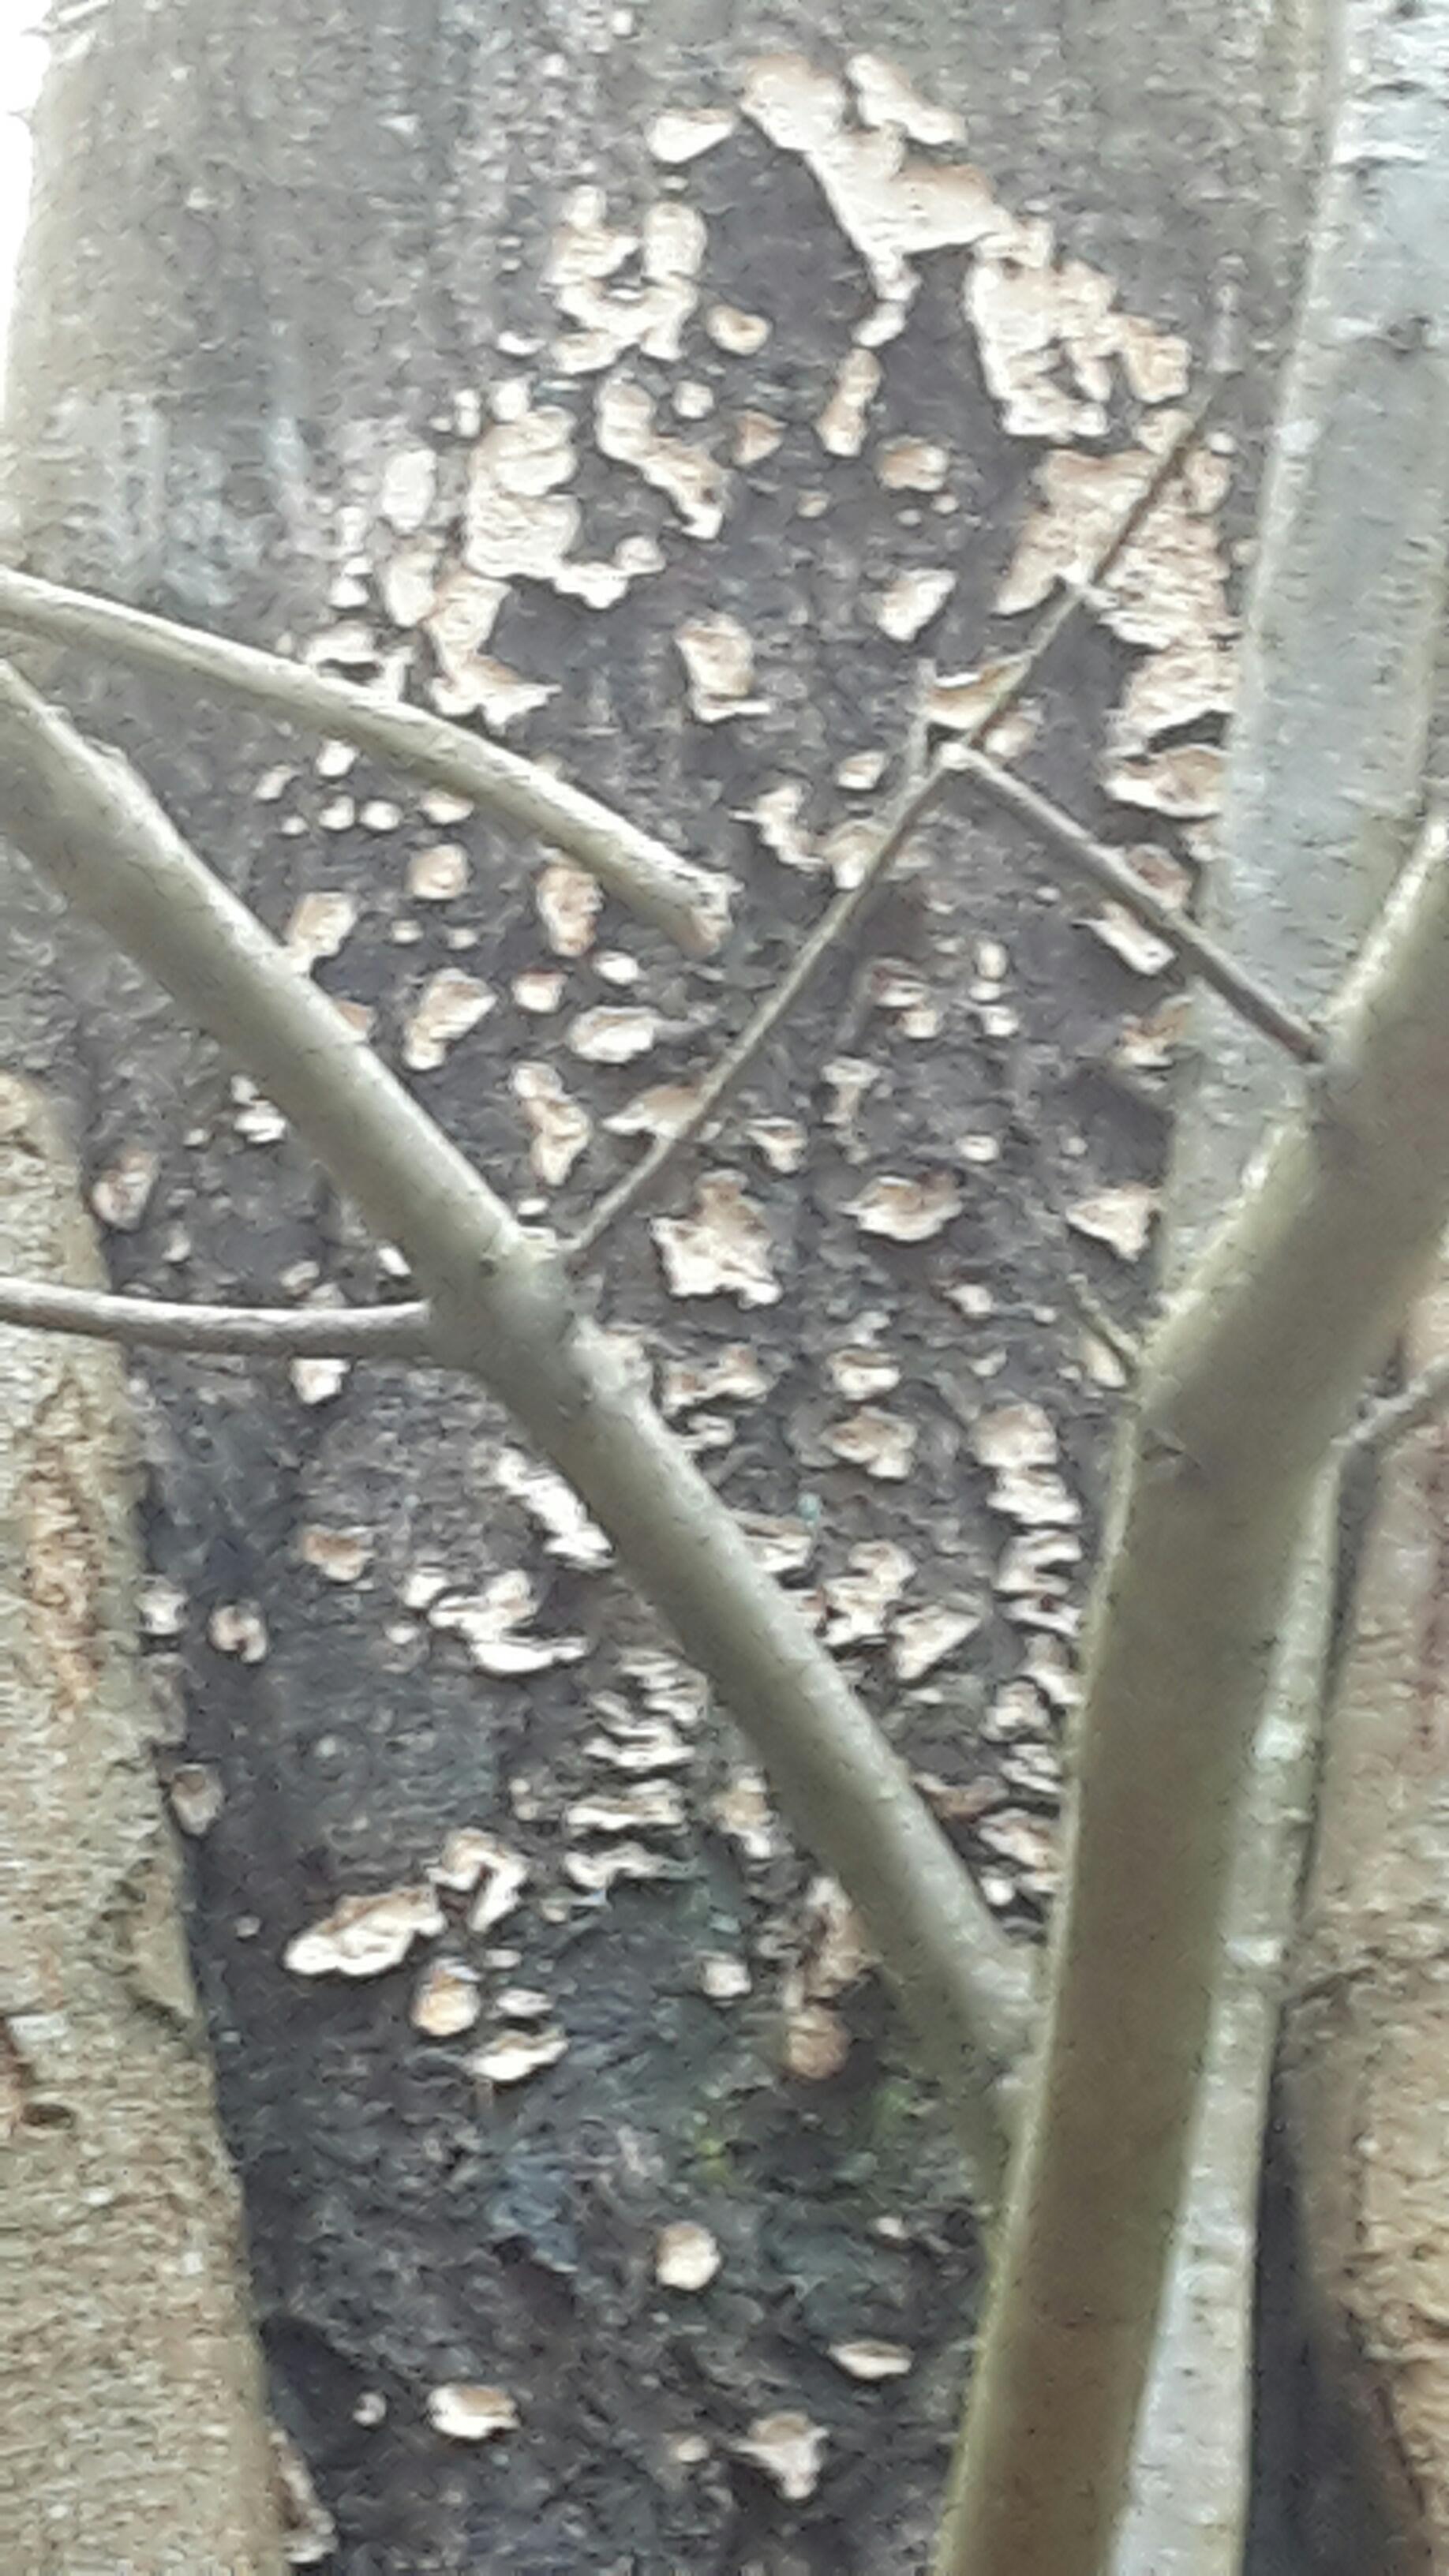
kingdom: Fungi
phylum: Basidiomycota
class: Agaricomycetes
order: Russulales
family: Stereaceae
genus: Stereum
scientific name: Stereum
